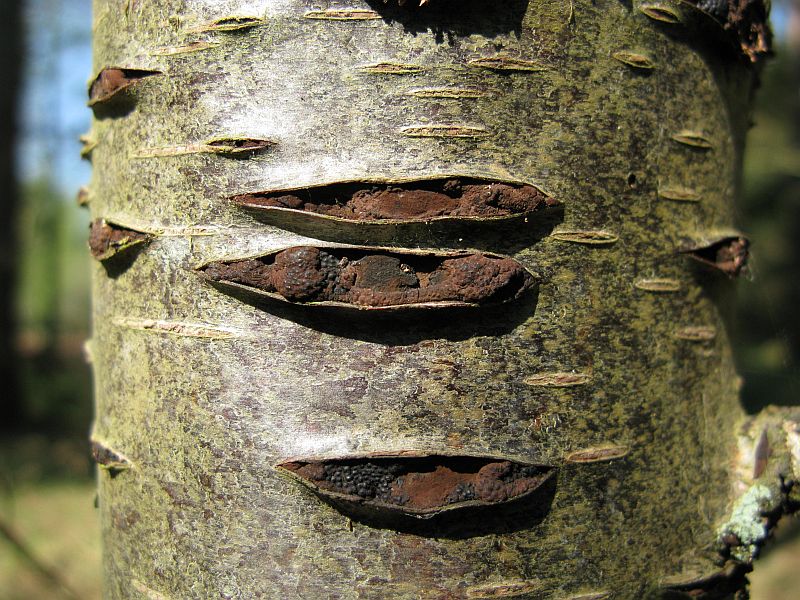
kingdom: Fungi
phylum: Ascomycota
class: Sordariomycetes
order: Xylariales
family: Hypoxylaceae
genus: Jackrogersella
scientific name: Jackrogersella multiformis
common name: foranderlig kulbær
